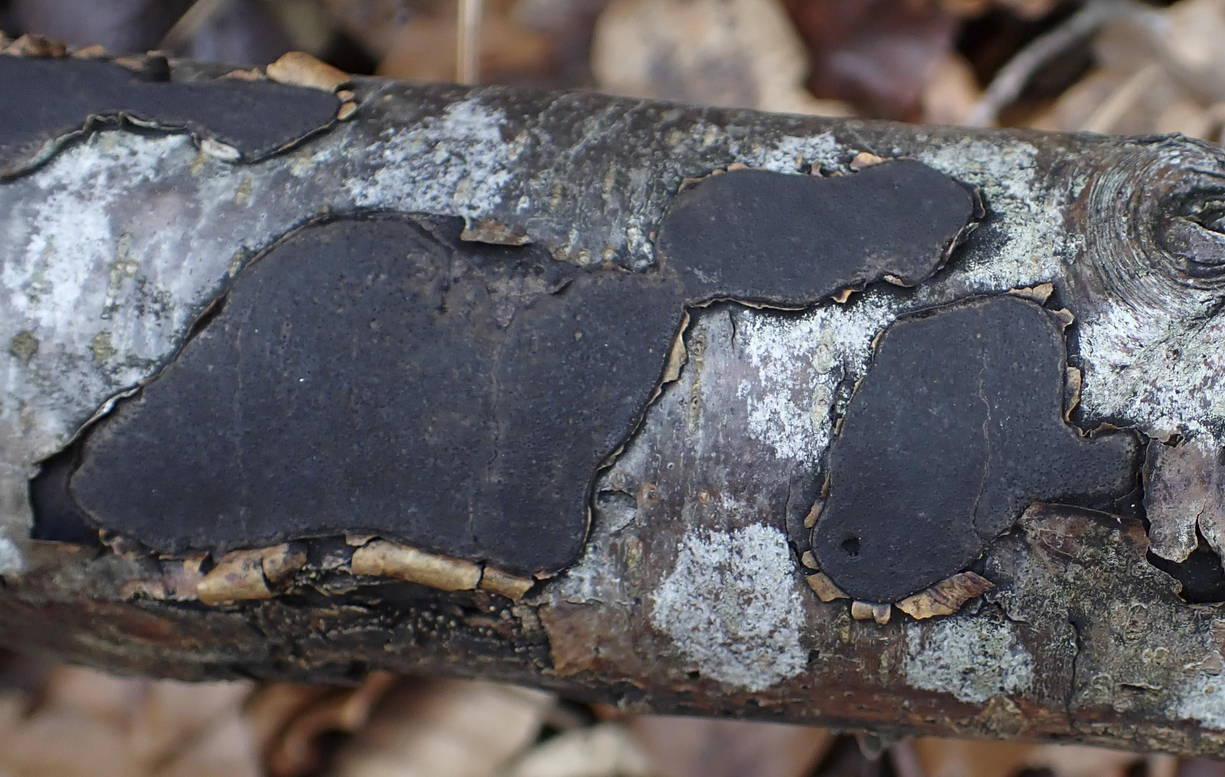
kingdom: Fungi
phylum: Ascomycota
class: Sordariomycetes
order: Xylariales
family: Graphostromataceae
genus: Biscogniauxia
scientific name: Biscogniauxia nummularia
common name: bøge-kulskive
